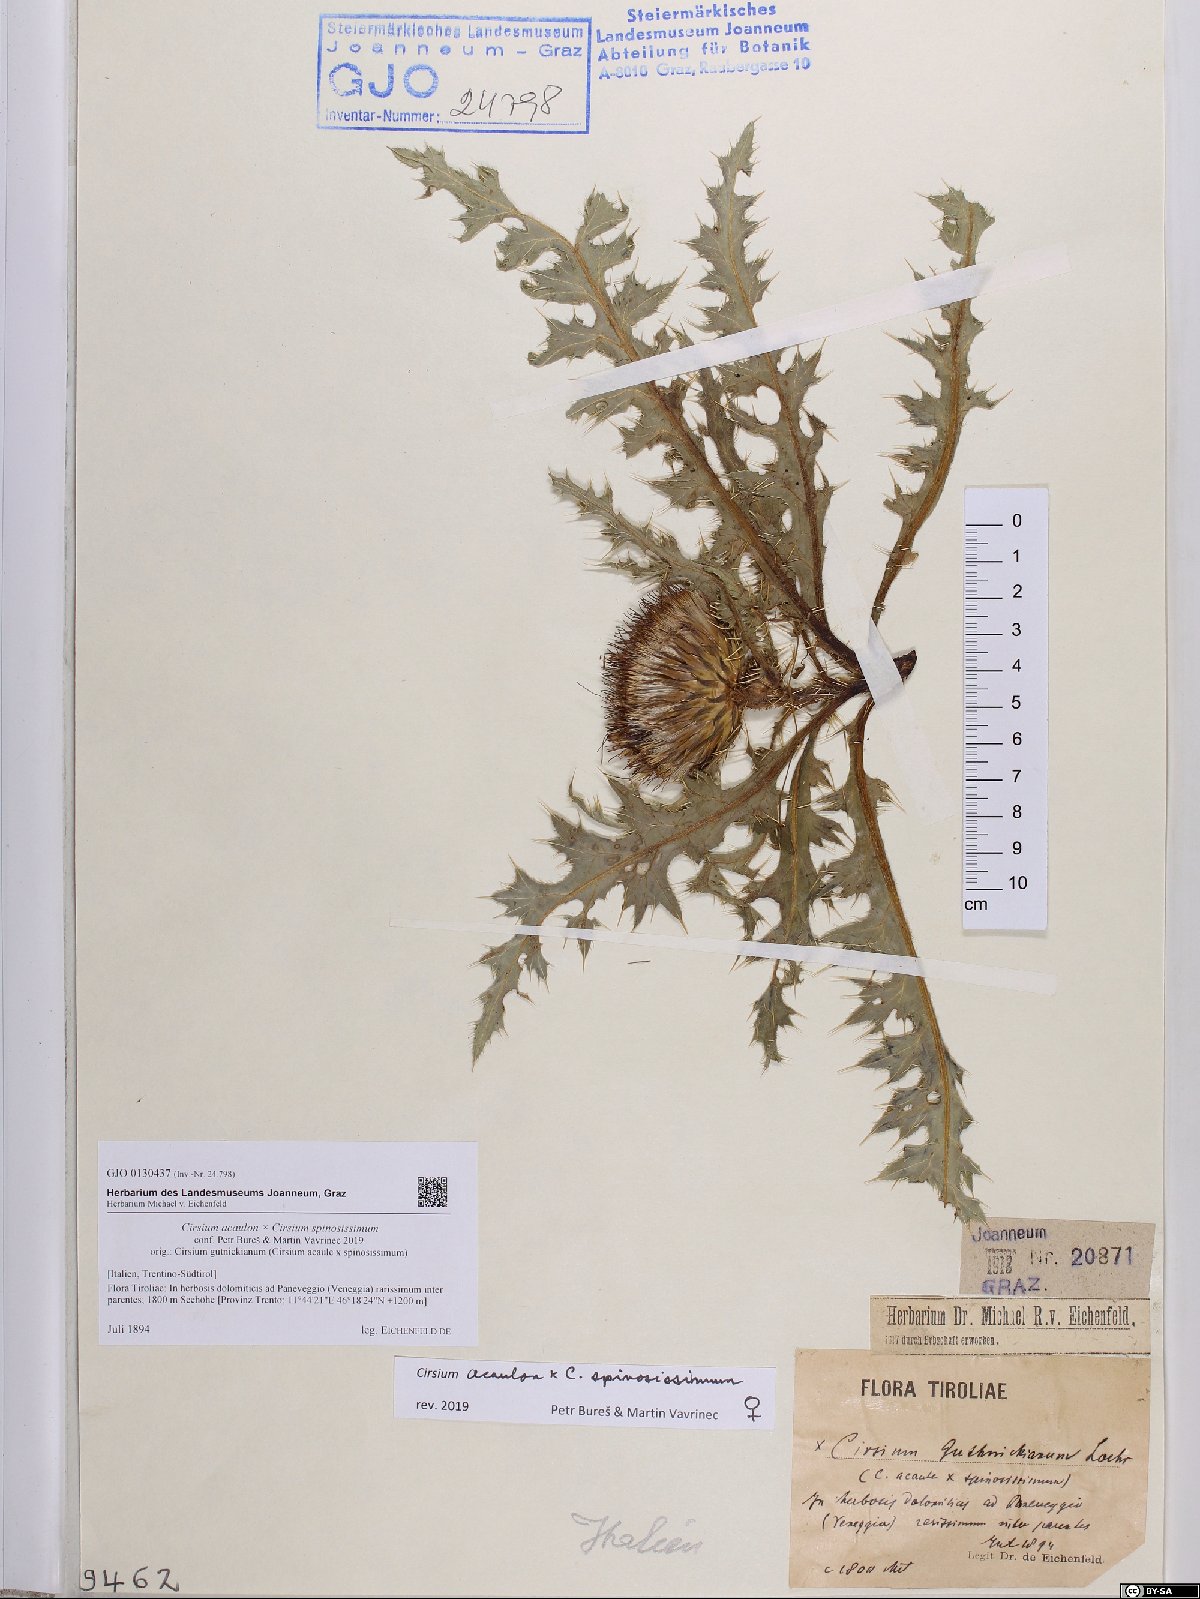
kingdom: Plantae
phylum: Tracheophyta
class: Magnoliopsida
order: Asterales
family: Asteraceae
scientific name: Asteraceae
